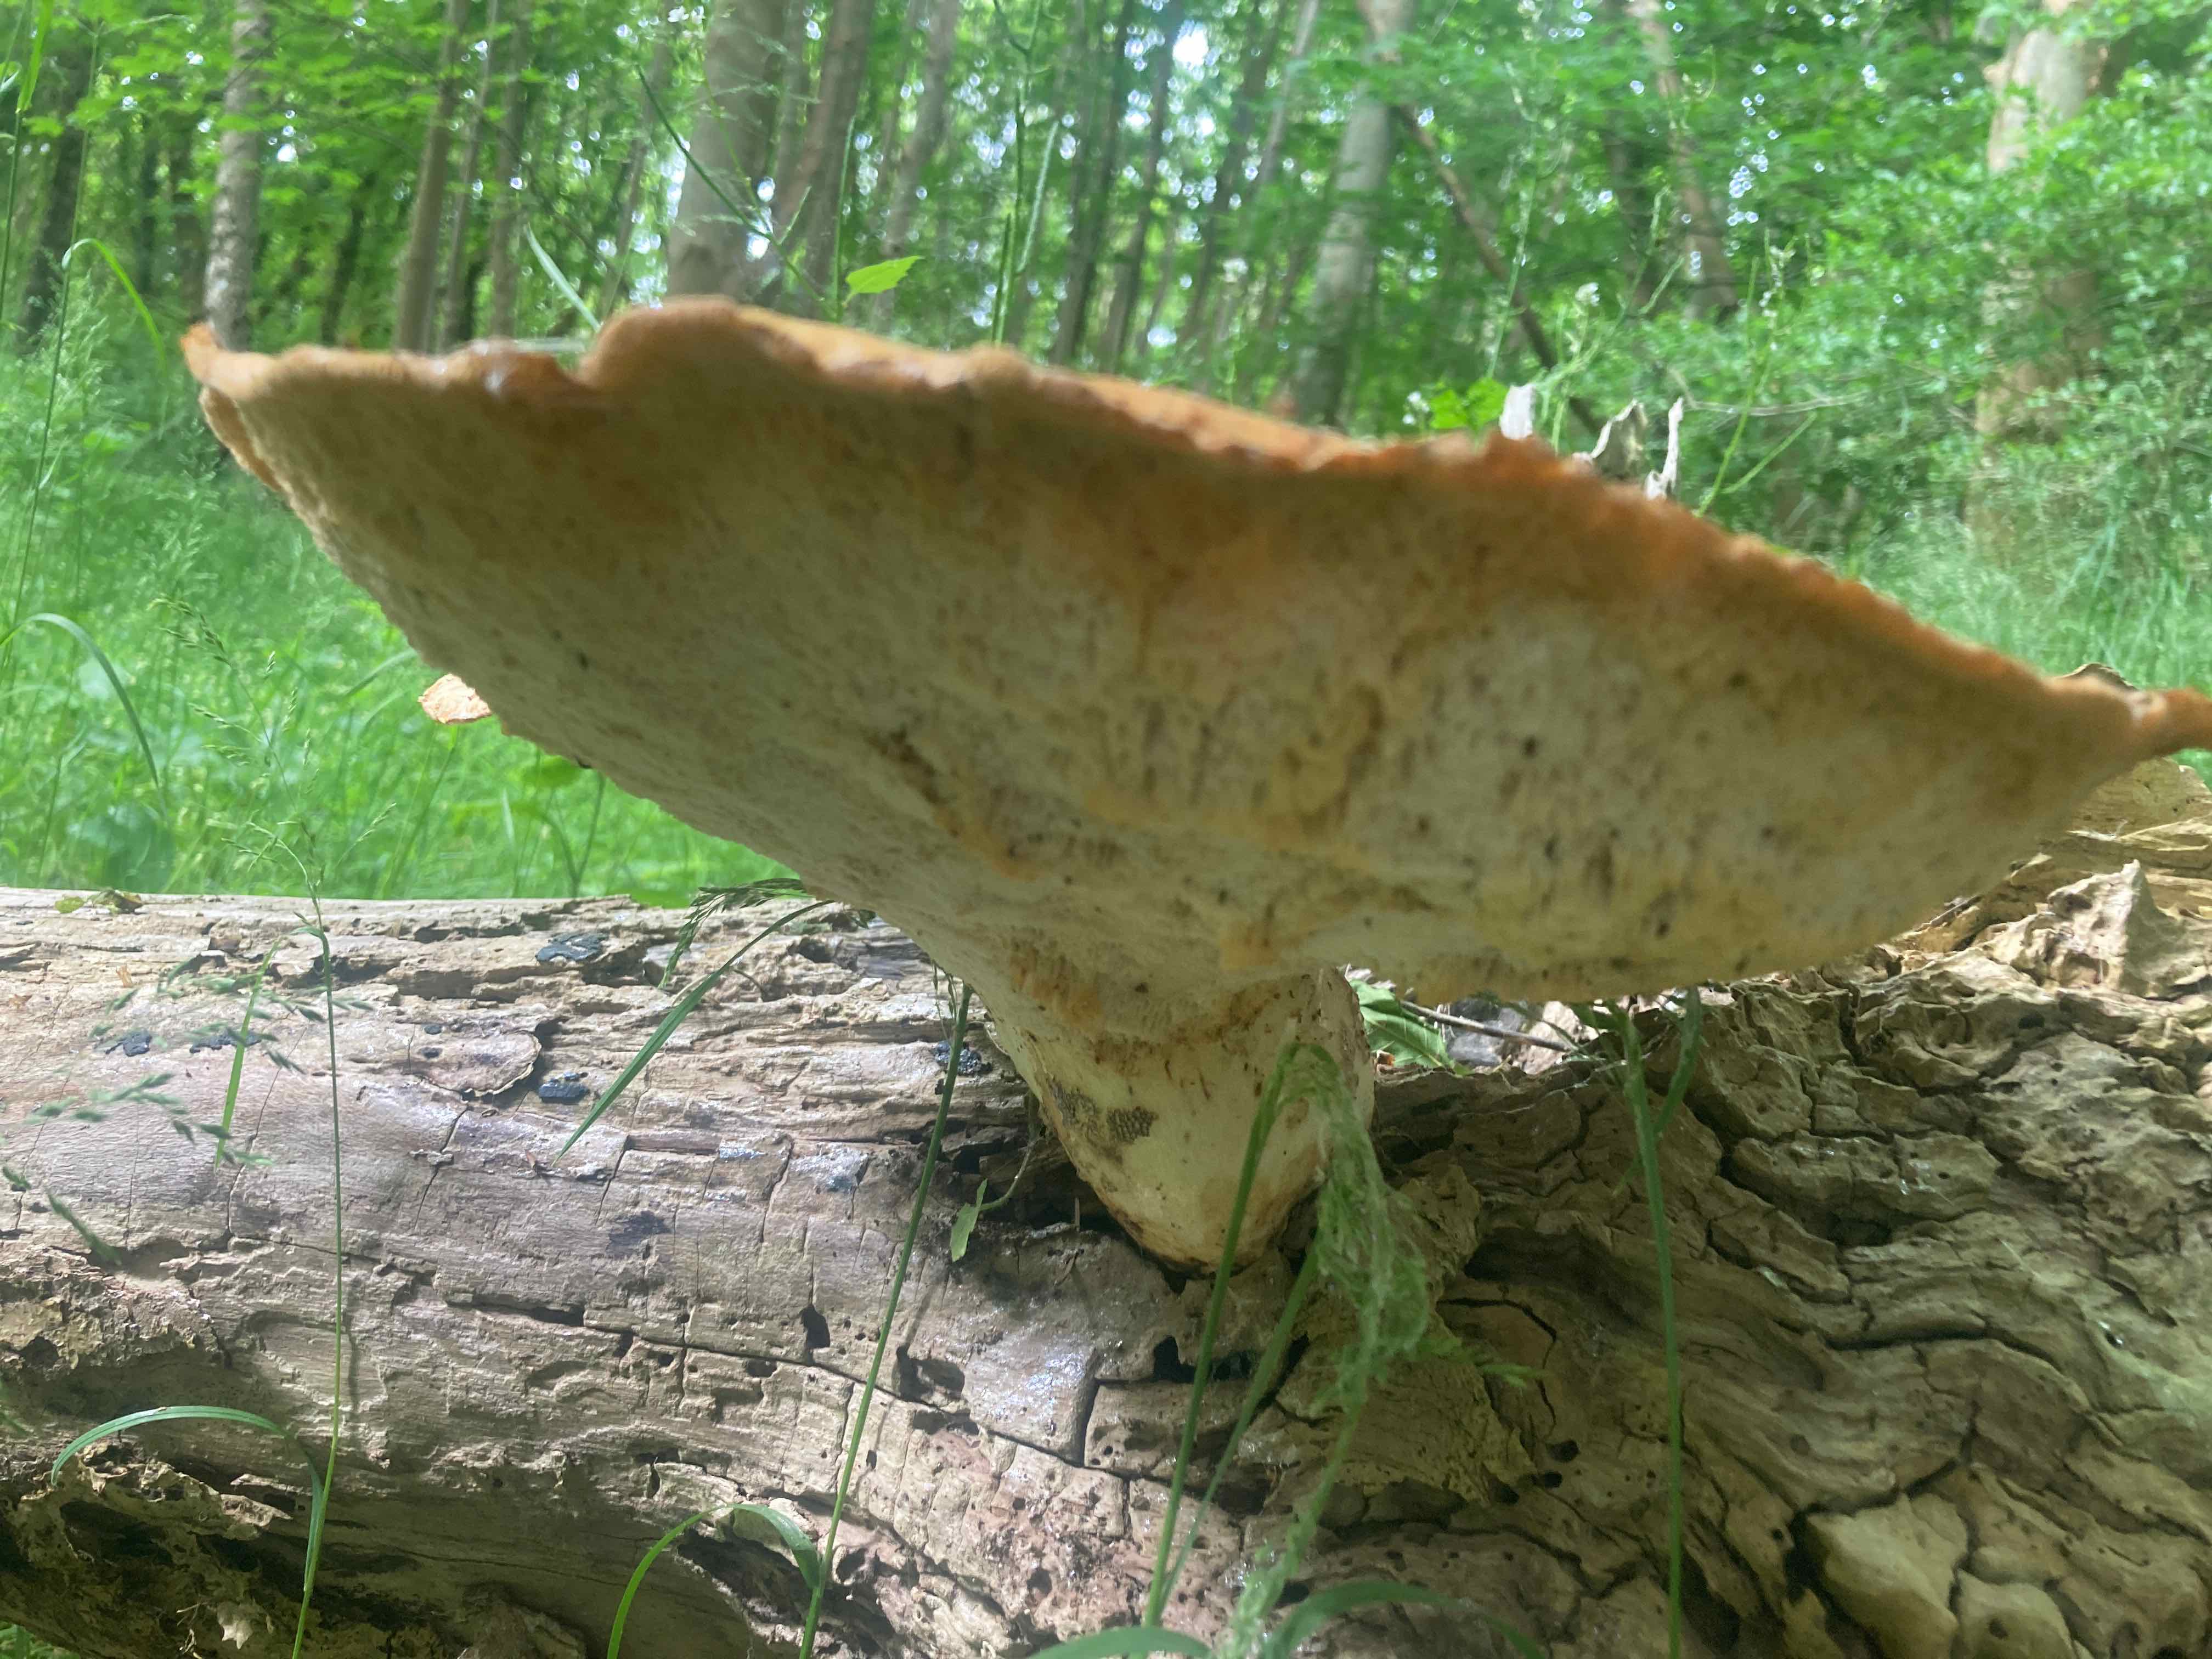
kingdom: Fungi
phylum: Basidiomycota
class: Agaricomycetes
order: Polyporales
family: Polyporaceae
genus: Cerioporus
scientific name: Cerioporus squamosus
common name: skællet stilkporesvamp
